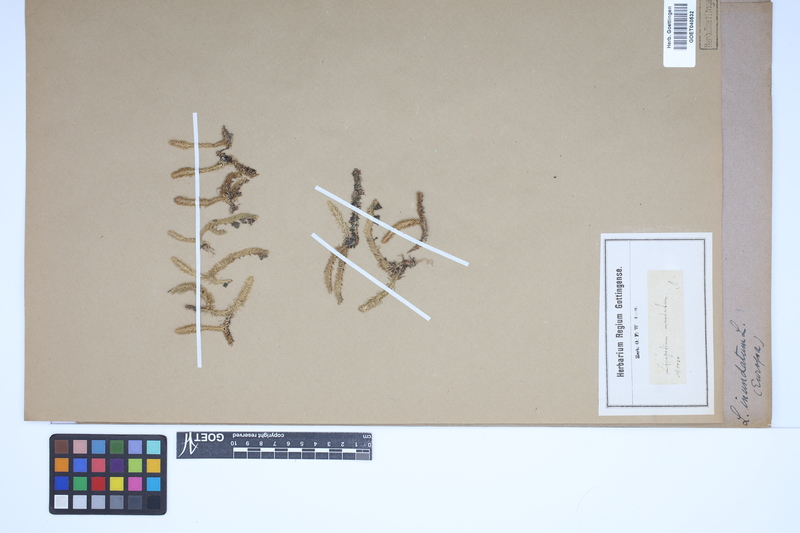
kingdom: Plantae
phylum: Tracheophyta
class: Lycopodiopsida
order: Lycopodiales
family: Lycopodiaceae
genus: Lycopodiella
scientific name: Lycopodiella inundata
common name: Marsh clubmoss
